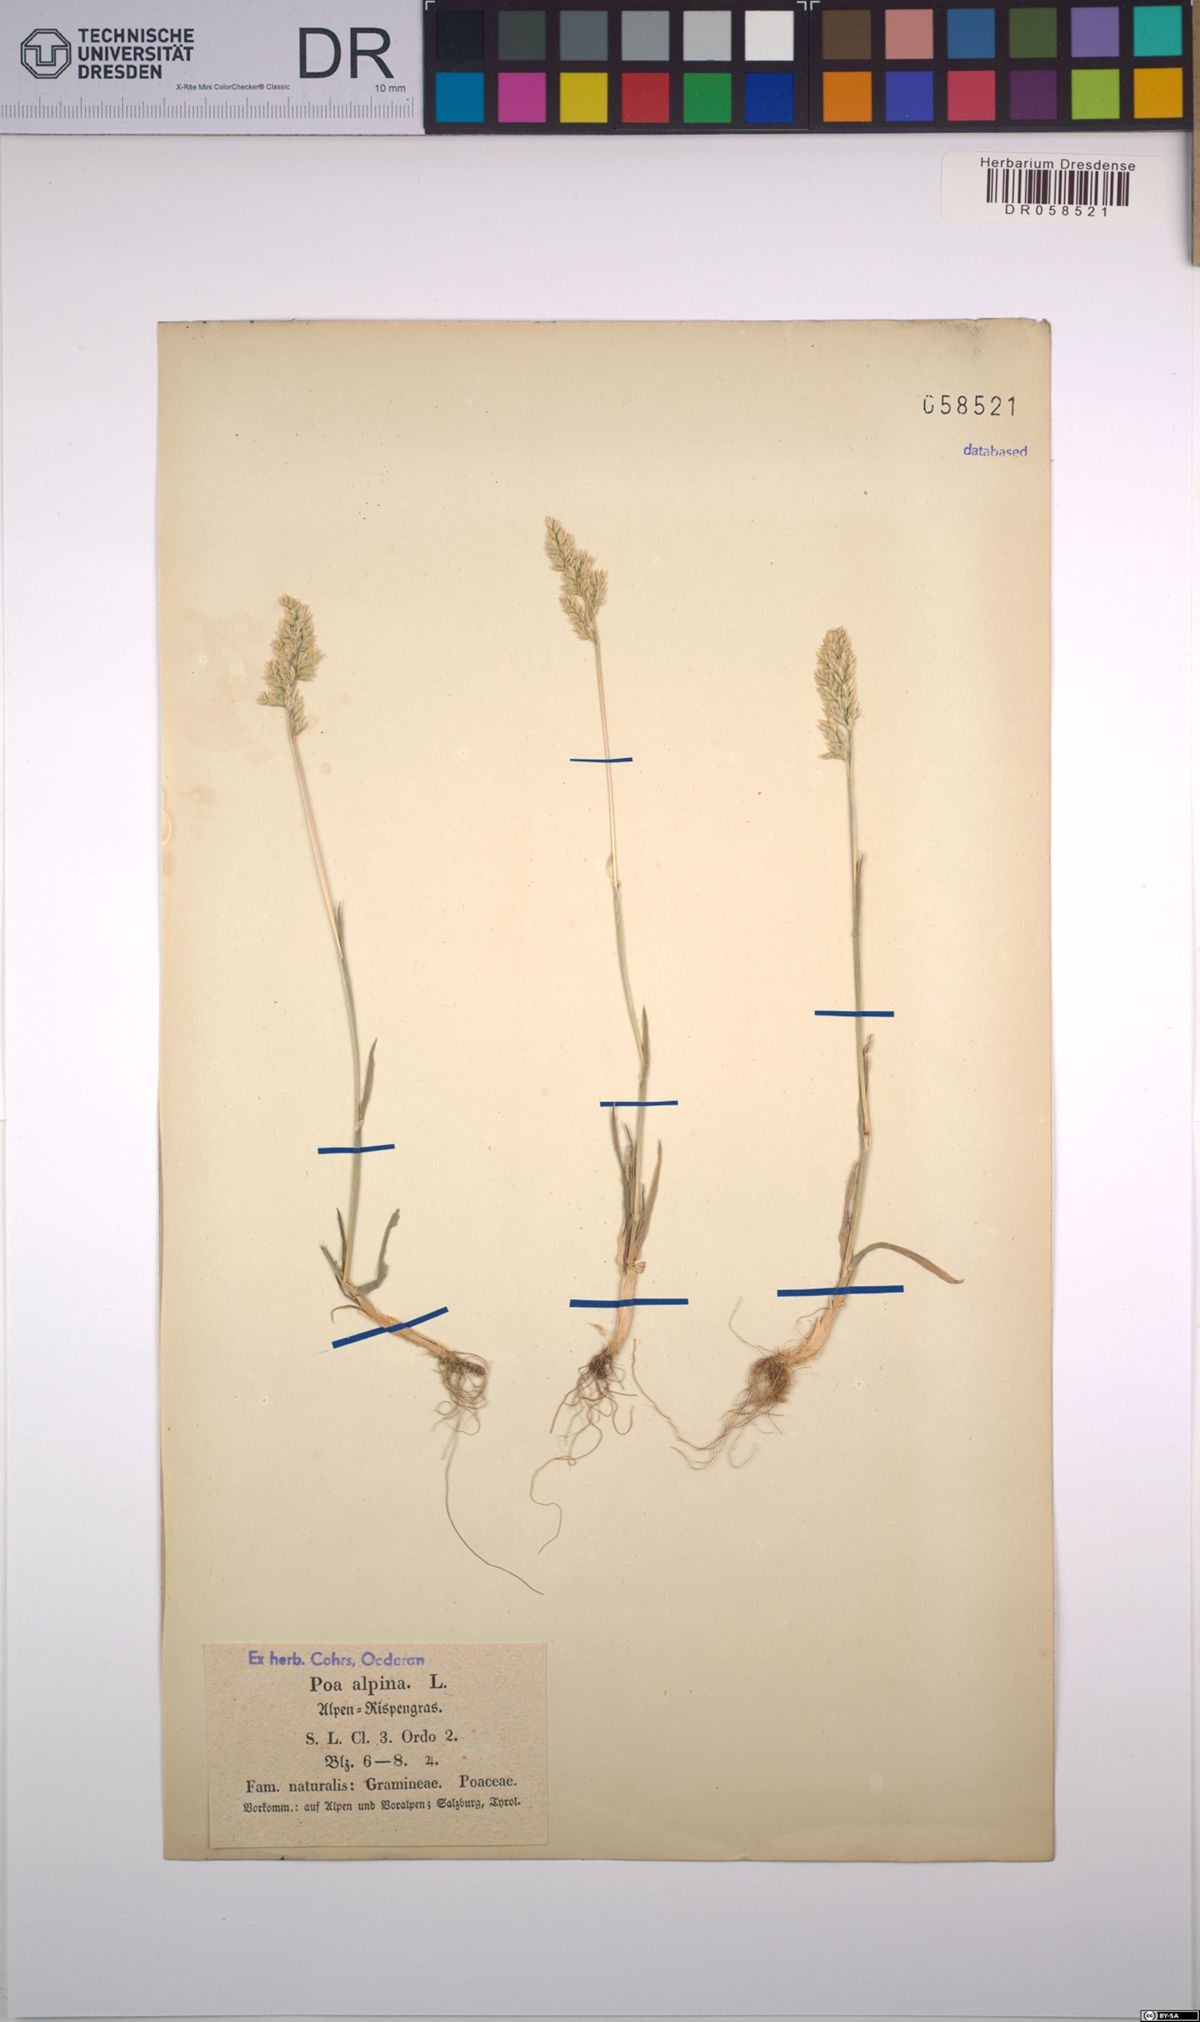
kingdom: Plantae
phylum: Tracheophyta
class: Liliopsida
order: Poales
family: Poaceae
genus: Poa
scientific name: Poa alpina
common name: Alpine bluegrass
